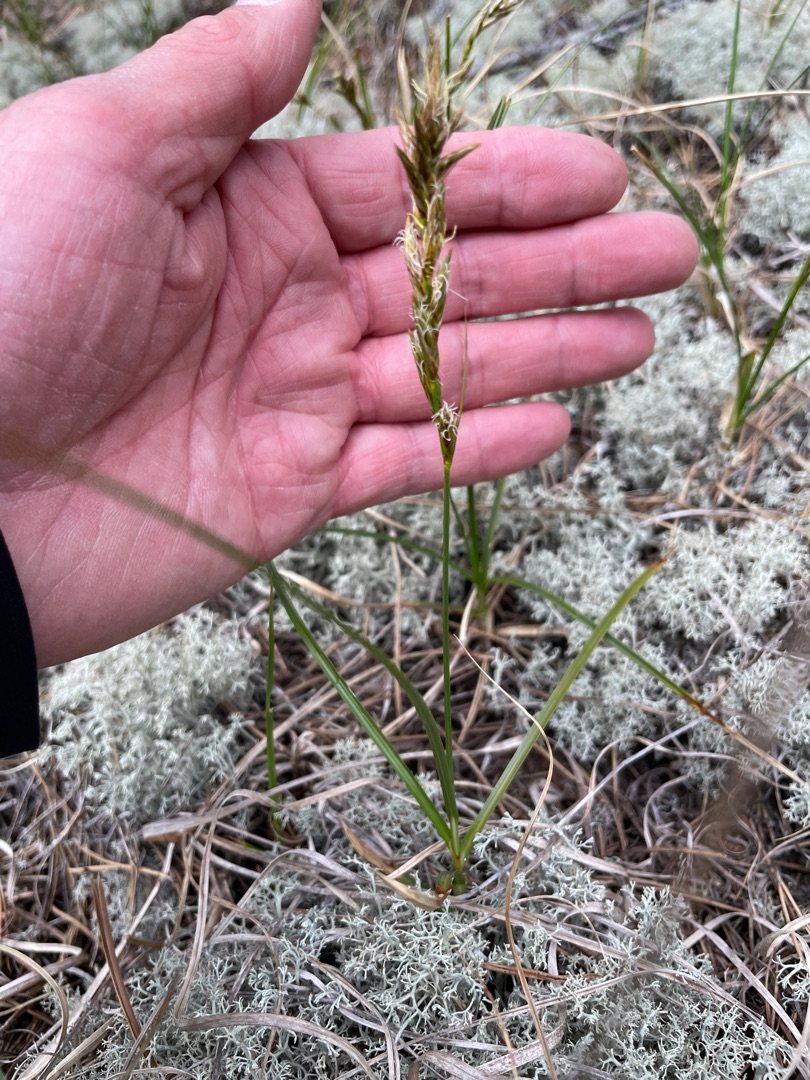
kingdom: Plantae
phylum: Tracheophyta
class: Liliopsida
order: Poales
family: Cyperaceae
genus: Carex
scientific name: Carex arenaria
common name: Sand-star
